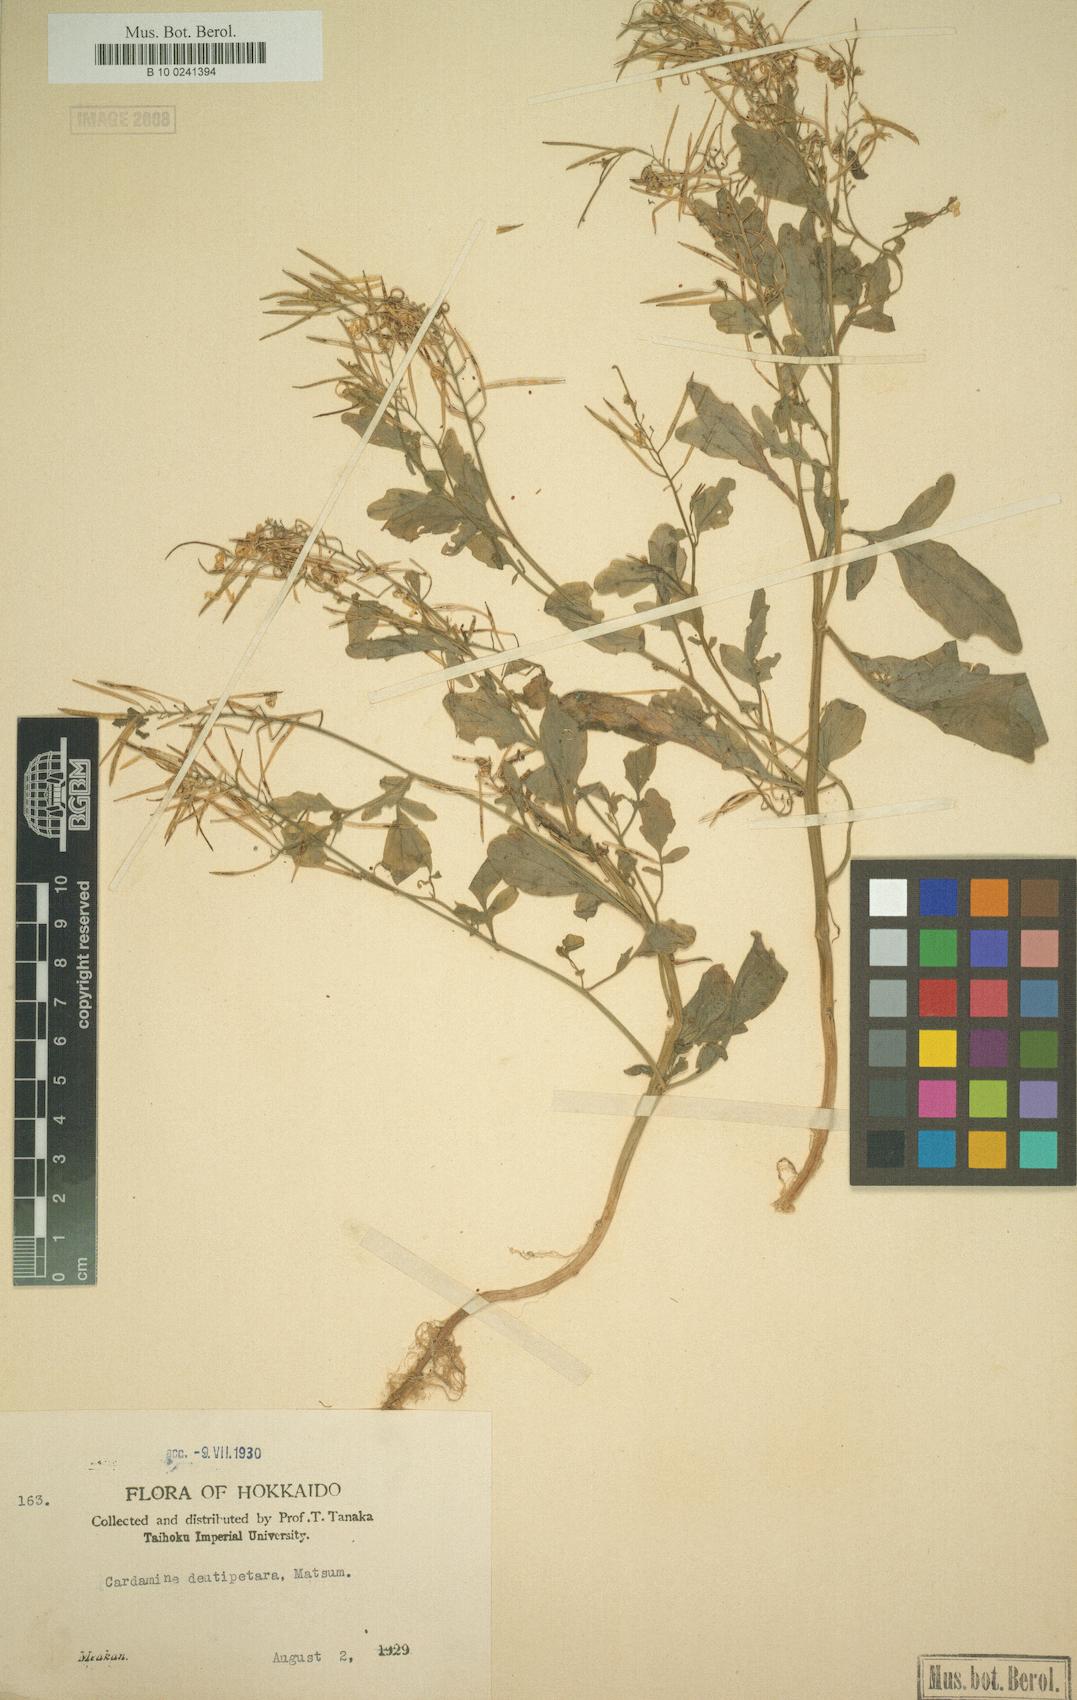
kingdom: Plantae
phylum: Tracheophyta
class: Magnoliopsida
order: Brassicales
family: Brassicaceae
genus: Cardamine
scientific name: Cardamine scutata
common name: Japanese bittercress
